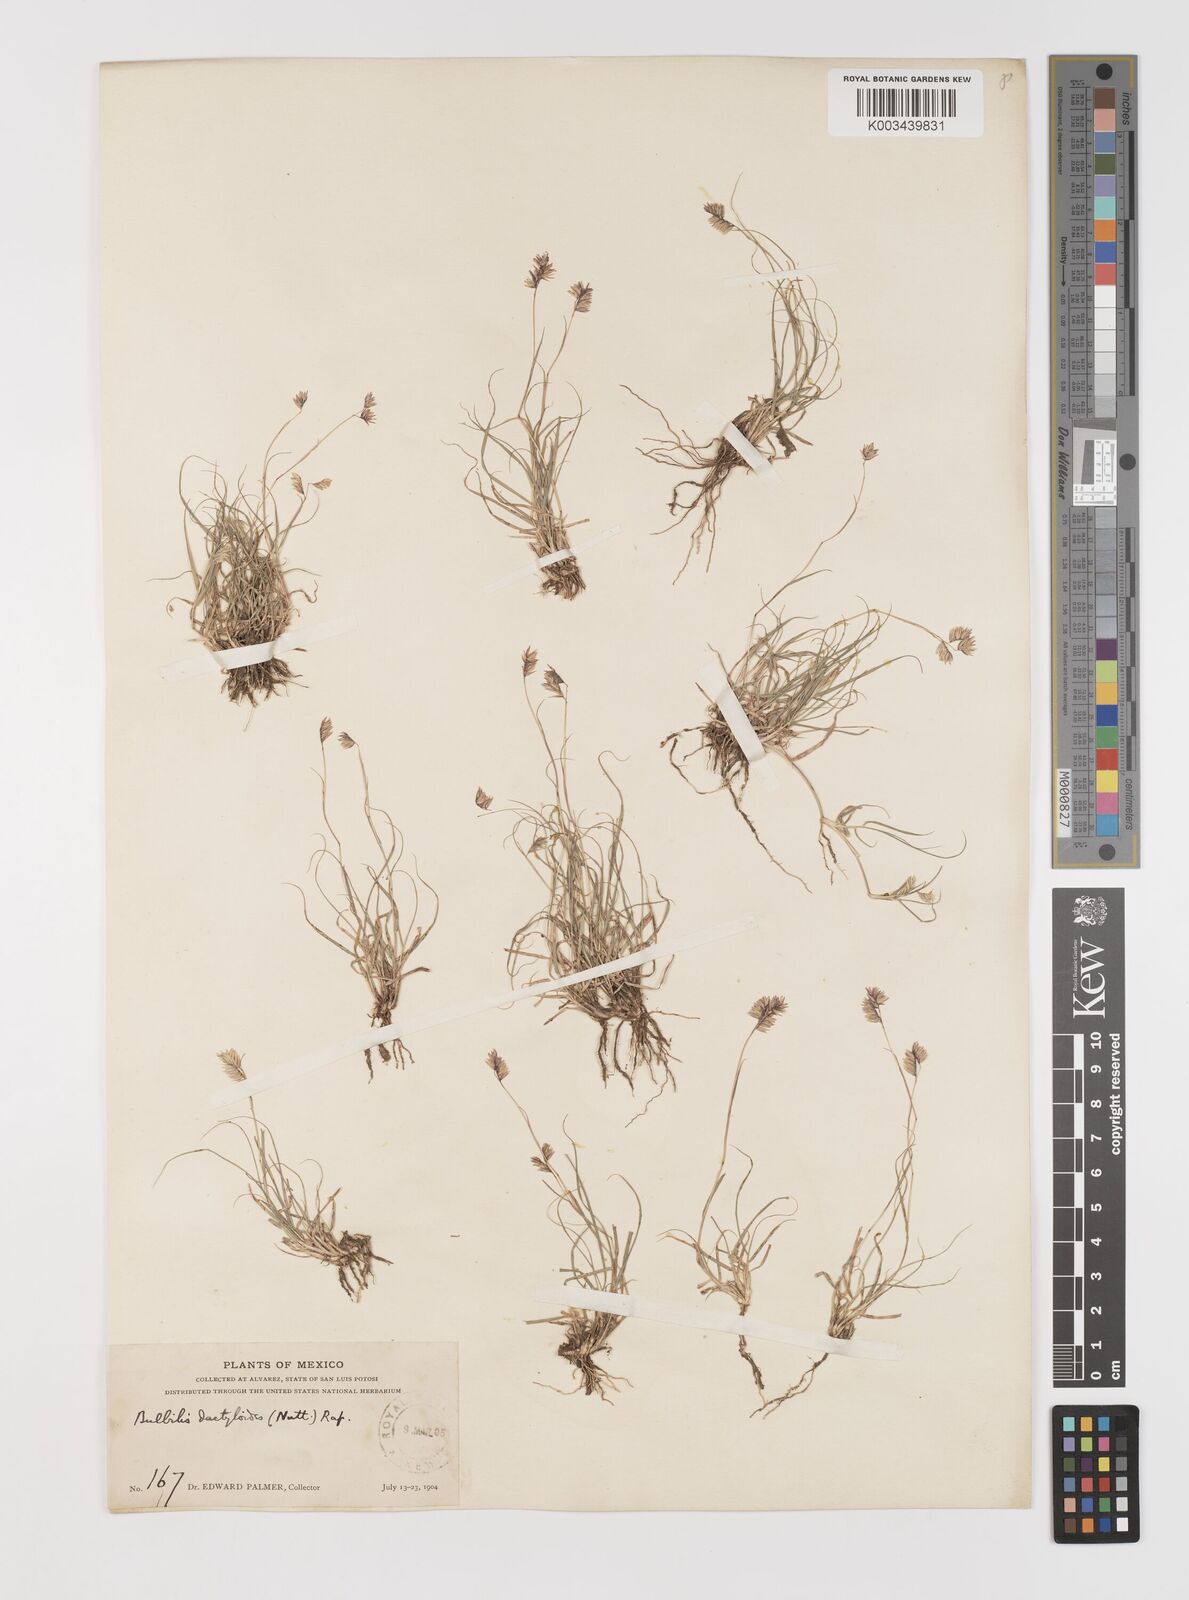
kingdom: Plantae
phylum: Tracheophyta
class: Liliopsida
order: Poales
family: Poaceae
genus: Bouteloua
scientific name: Bouteloua dactyloides
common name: Buffalo grass
